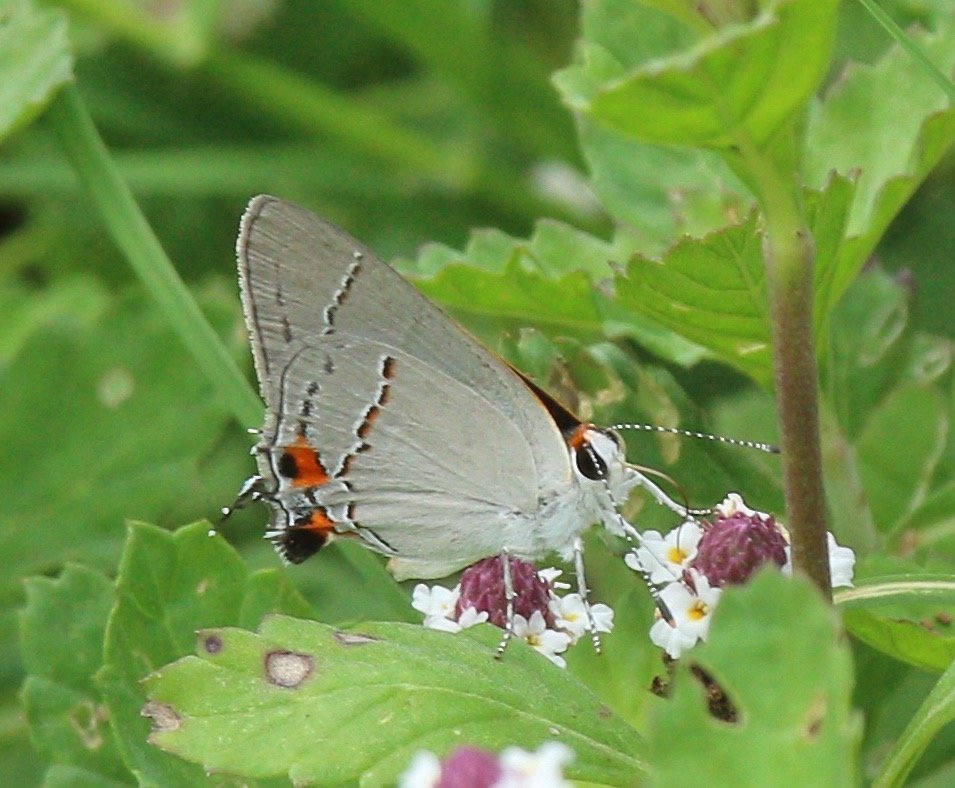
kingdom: Animalia
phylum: Arthropoda
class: Insecta
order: Lepidoptera
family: Lycaenidae
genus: Strymon
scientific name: Strymon melinus
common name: Gray Hairstreak
